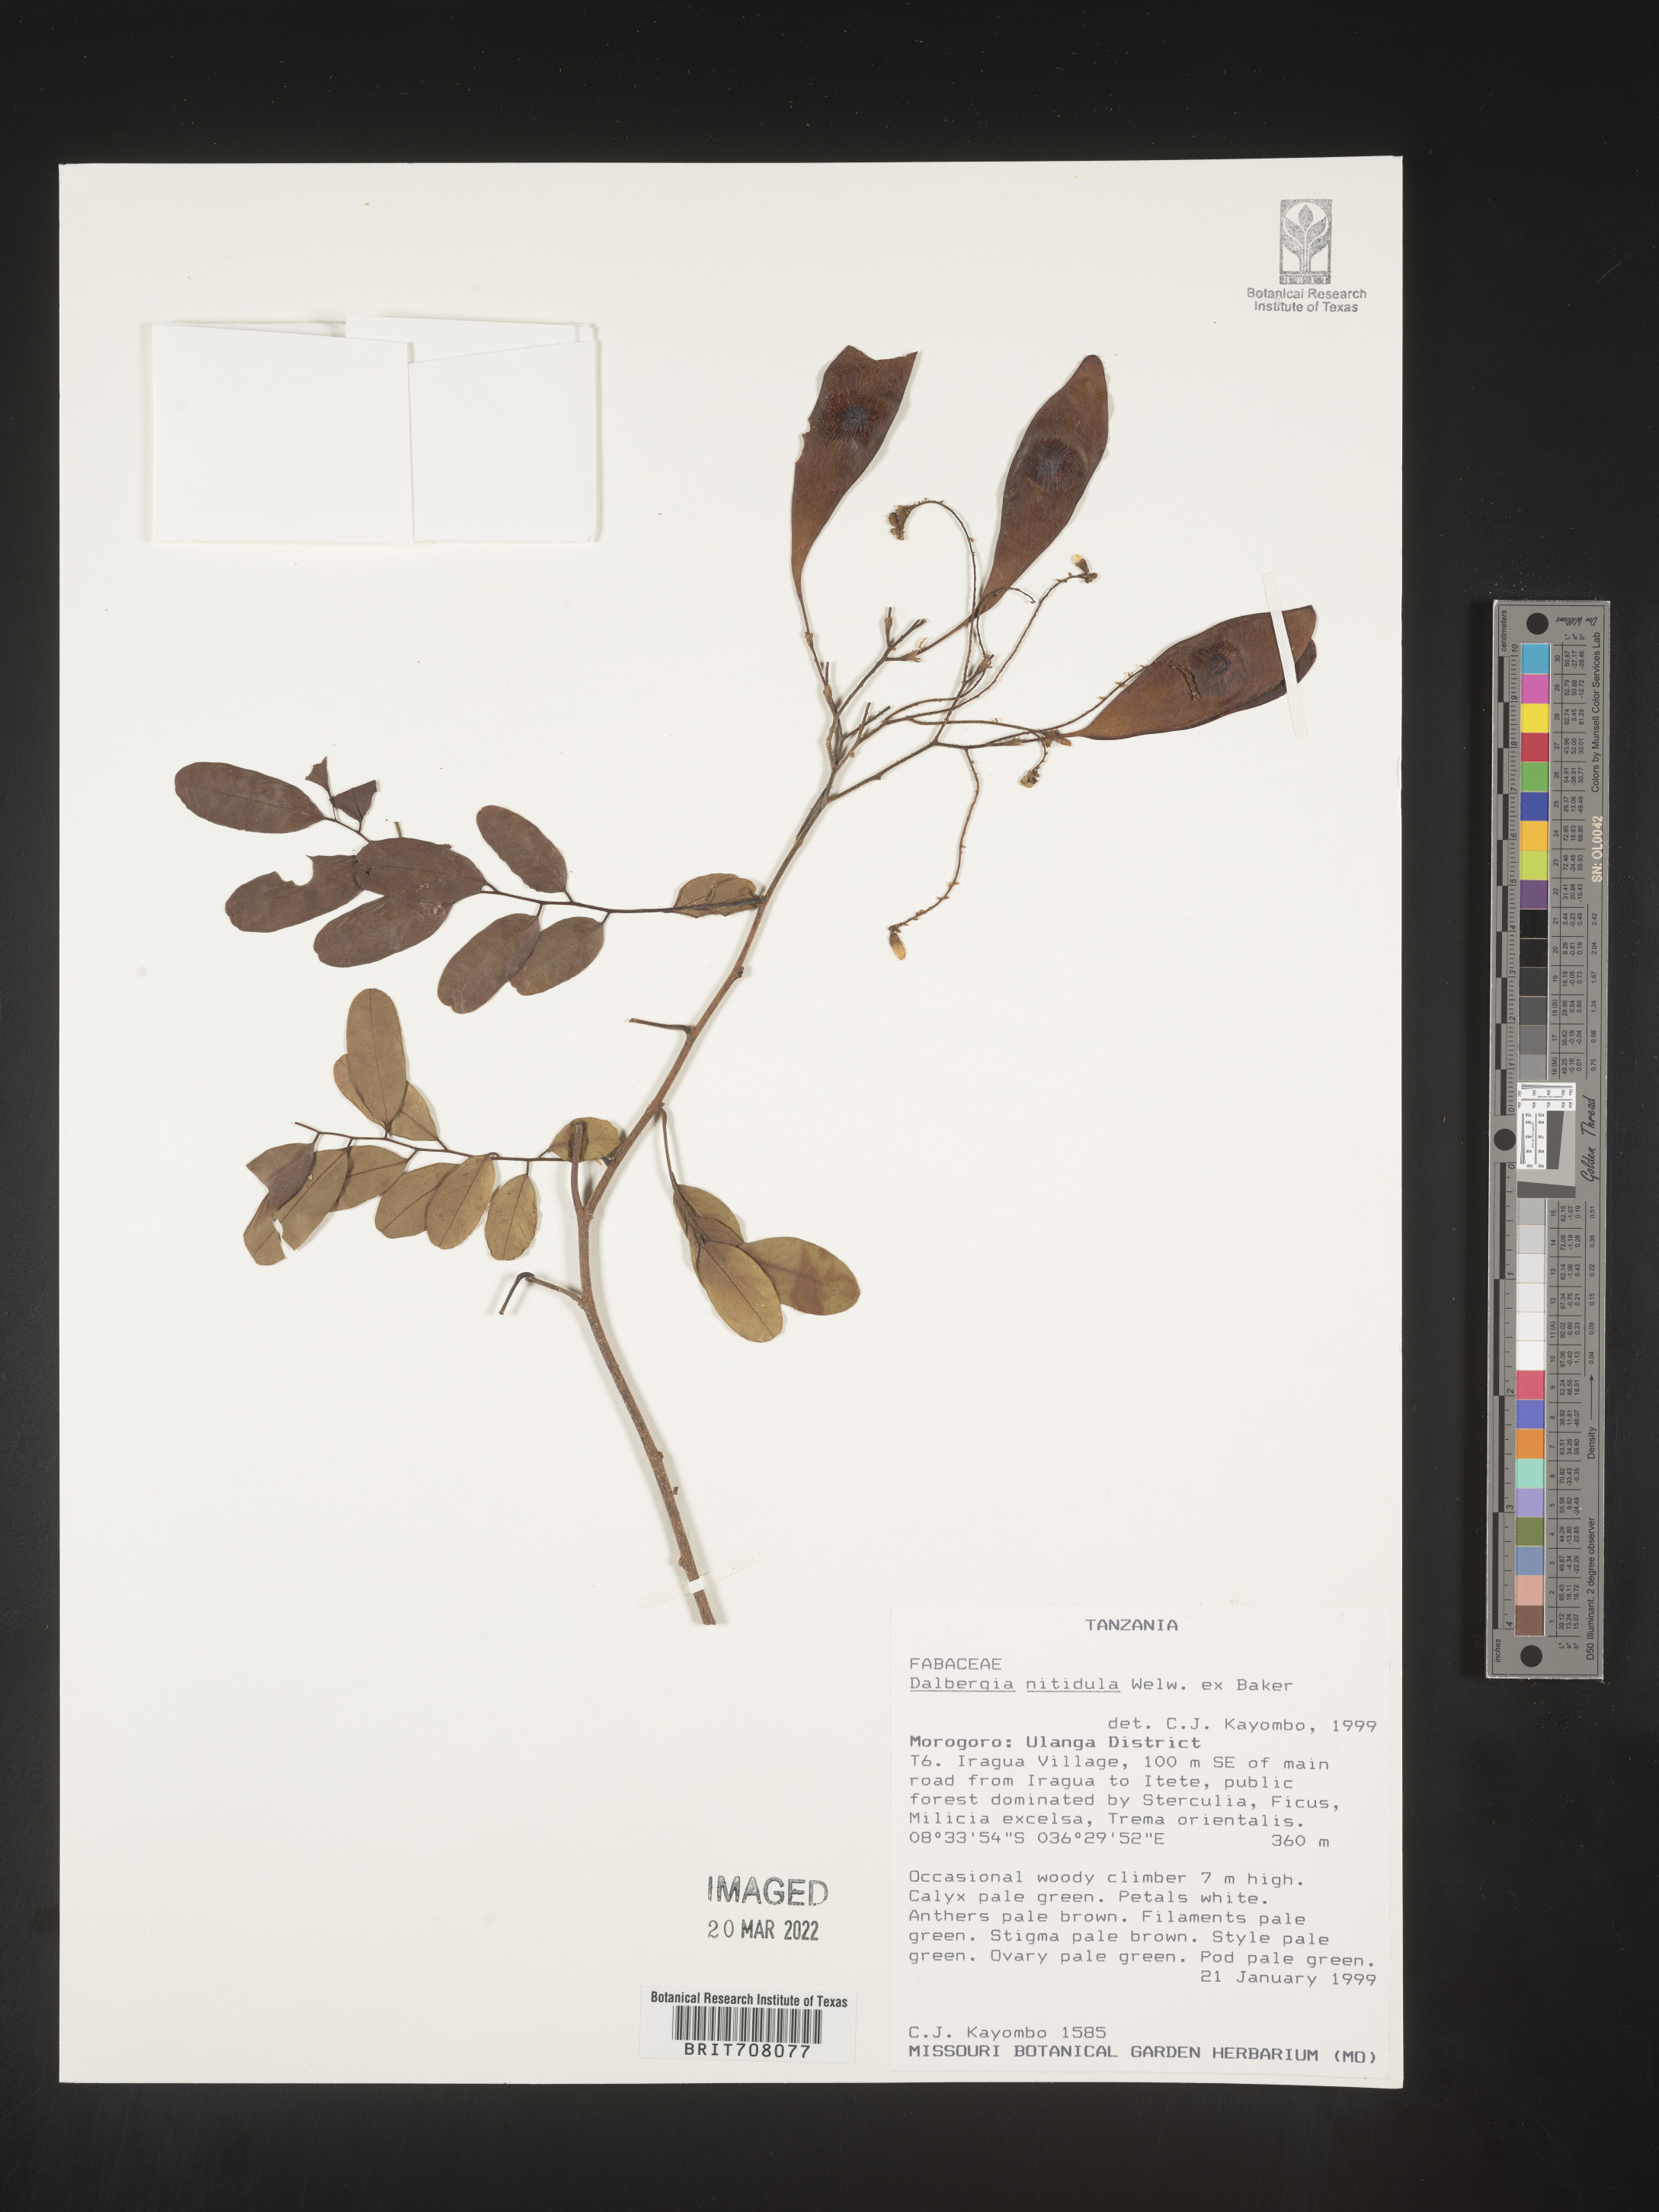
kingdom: Plantae
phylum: Tracheophyta
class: Magnoliopsida
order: Fabales
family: Fabaceae
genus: Dalbergia
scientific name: Dalbergia
